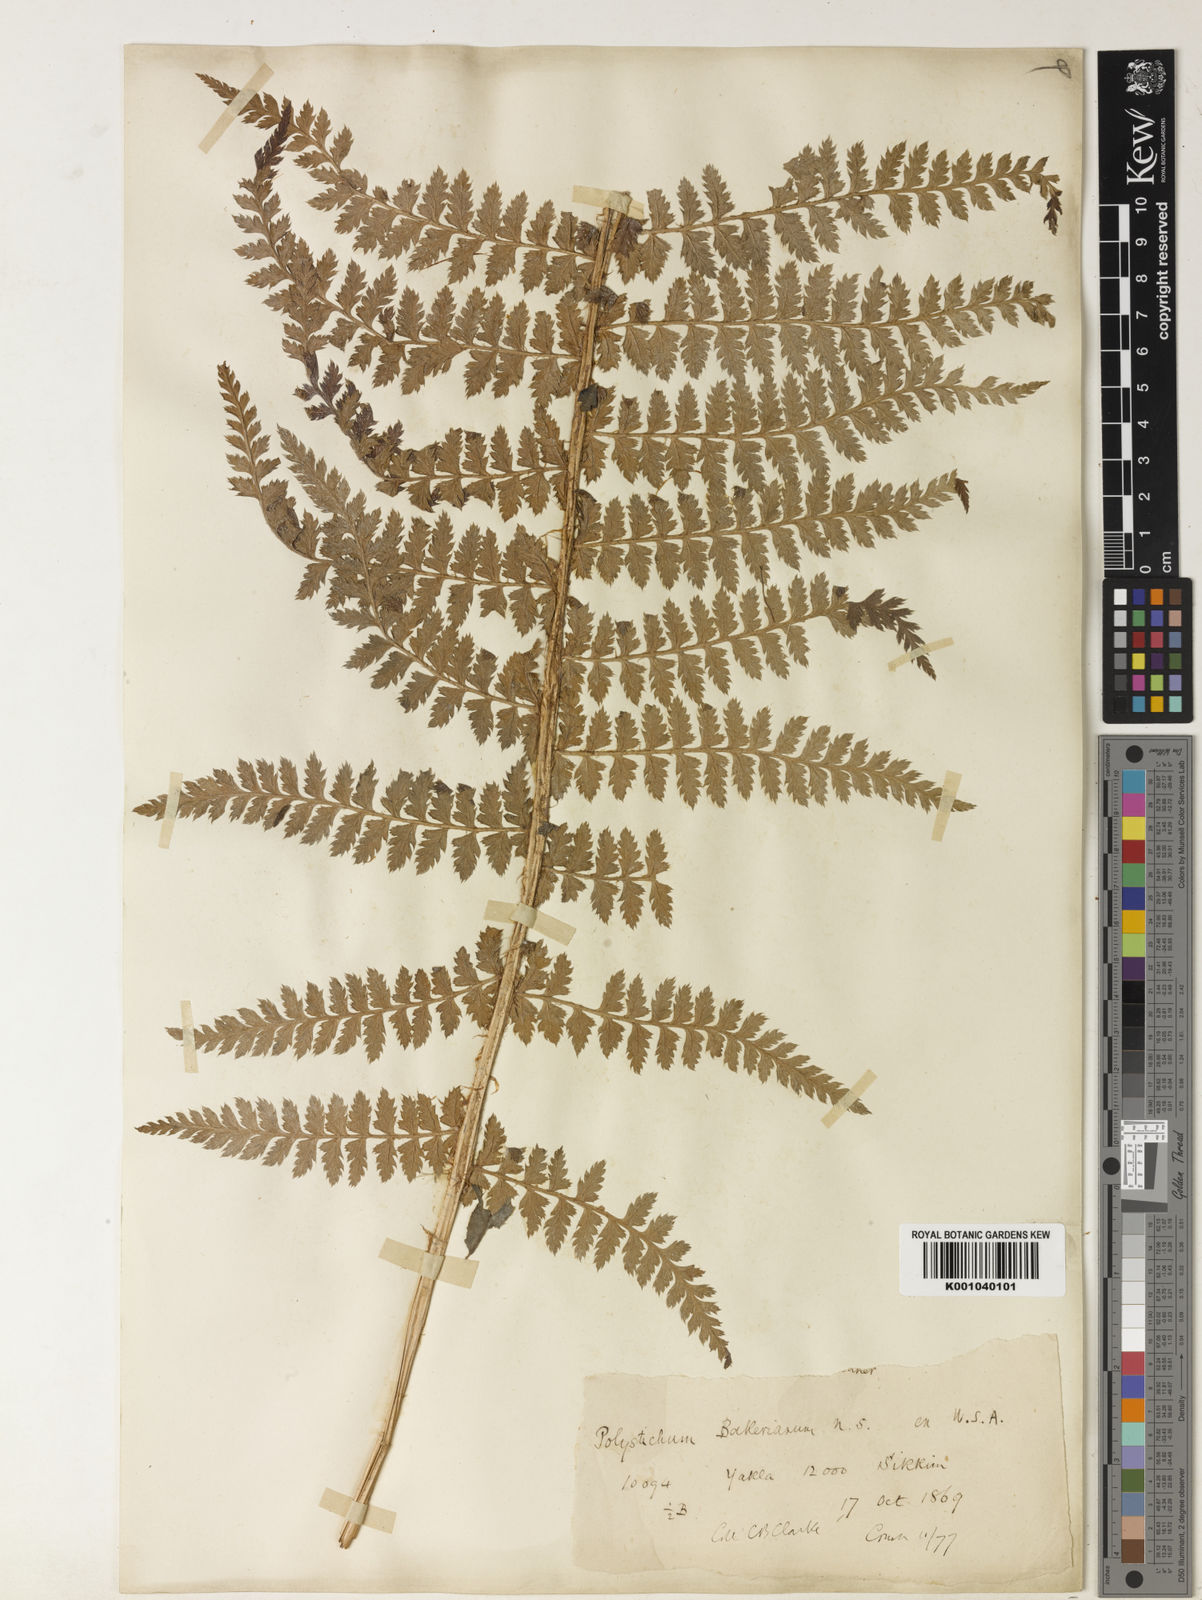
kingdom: Plantae
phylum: Tracheophyta
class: Polypodiopsida
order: Polypodiales
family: Dryopteridaceae
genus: Polystichum
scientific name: Polystichum bakerianum
